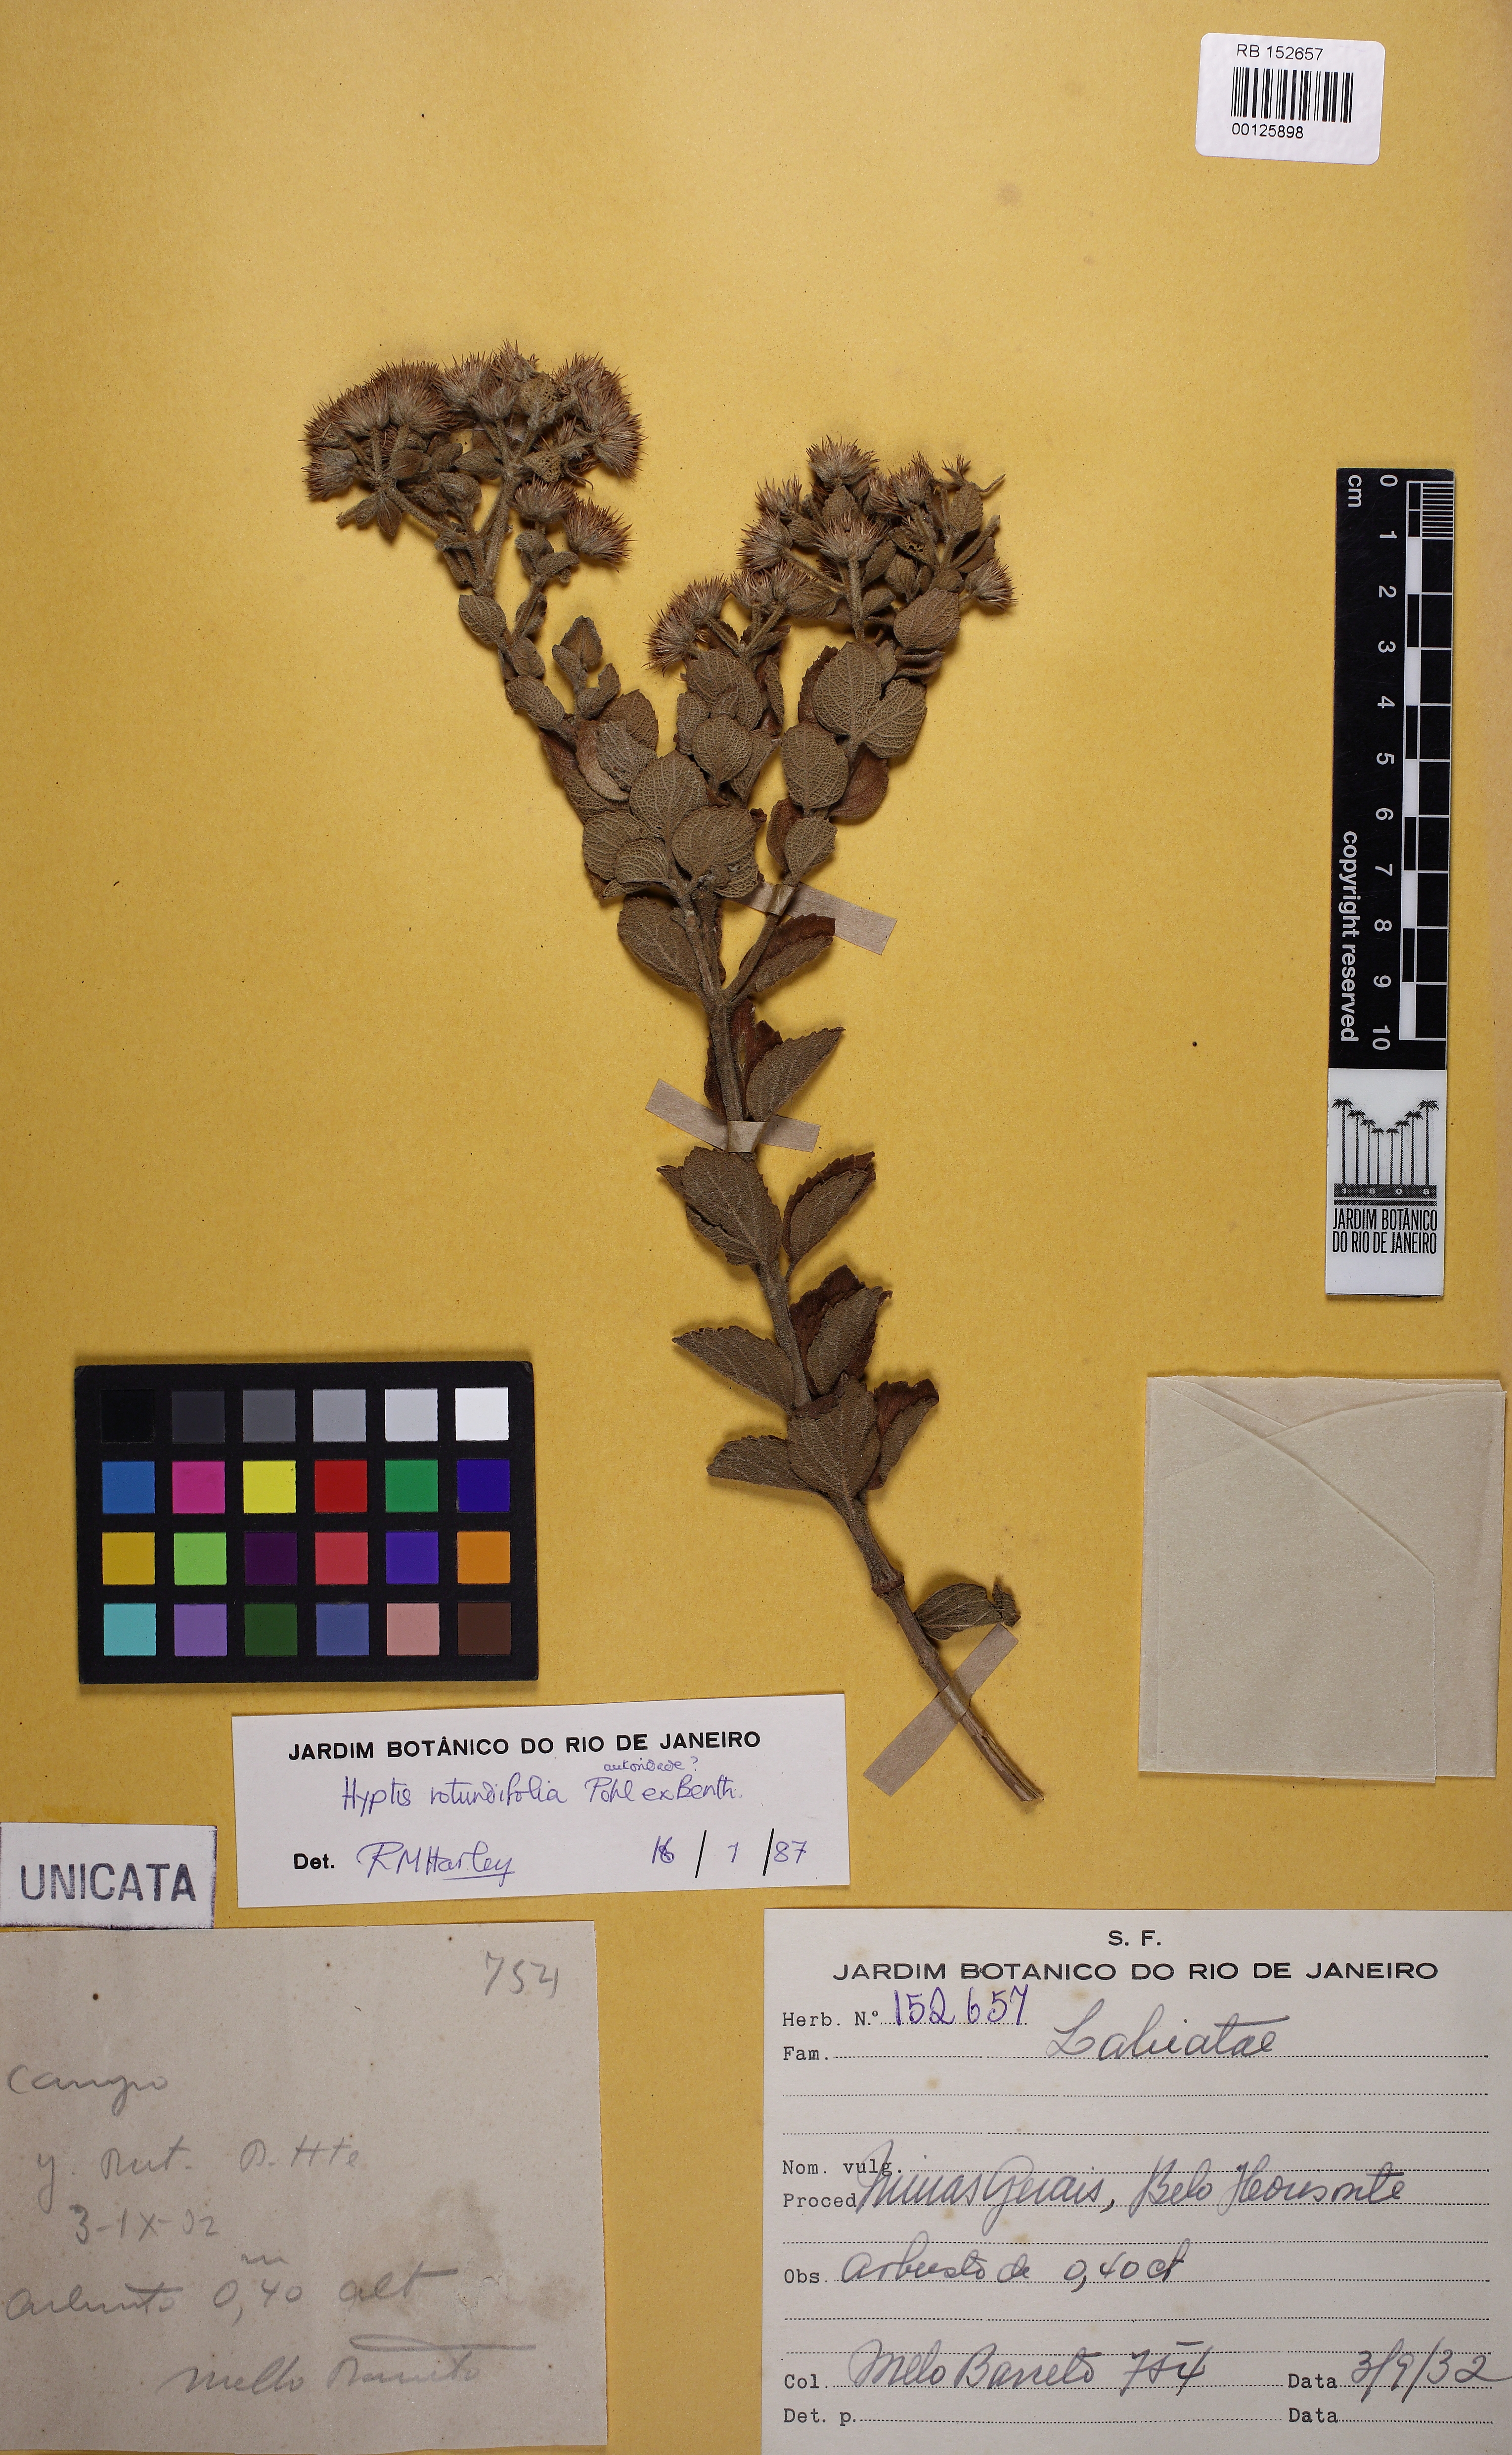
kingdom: Plantae
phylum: Tracheophyta
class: Magnoliopsida
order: Lamiales
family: Lamiaceae
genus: Hyptis
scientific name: Hyptis rotundifolia
